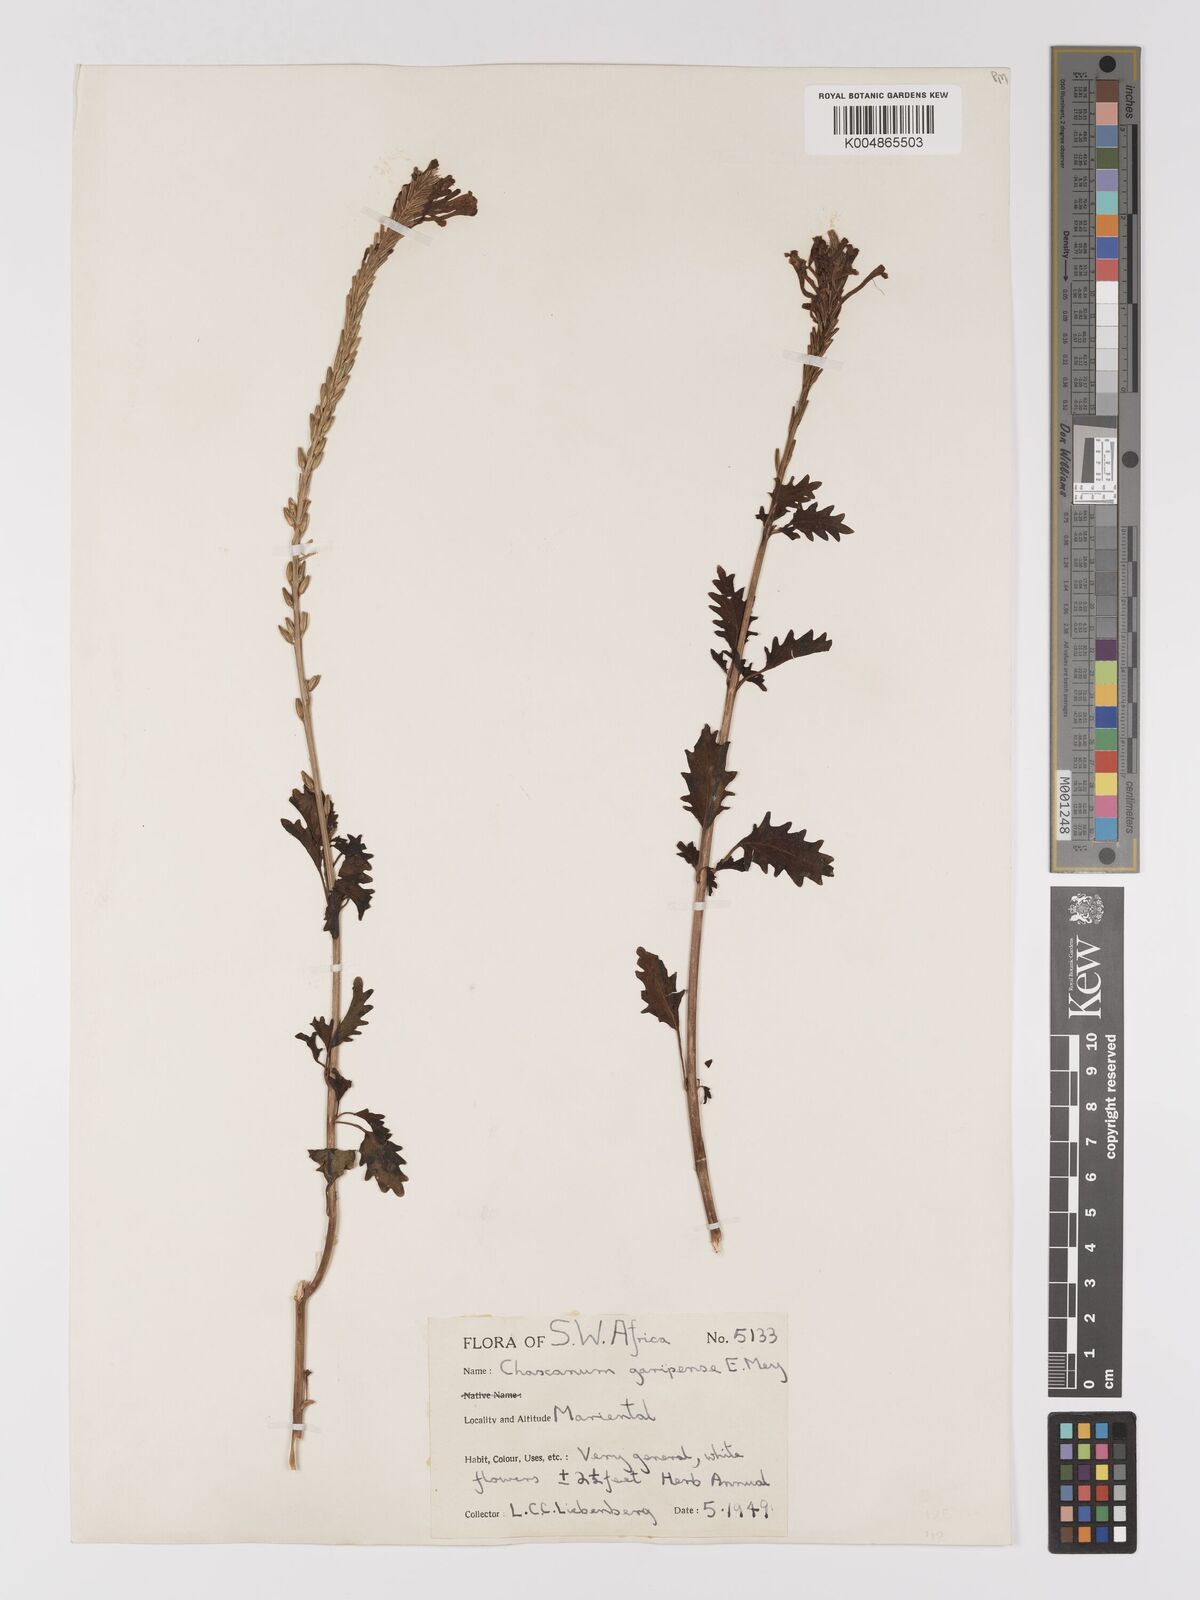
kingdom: Plantae
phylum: Tracheophyta
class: Magnoliopsida
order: Lamiales
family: Verbenaceae
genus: Chascanum
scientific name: Chascanum garipense
